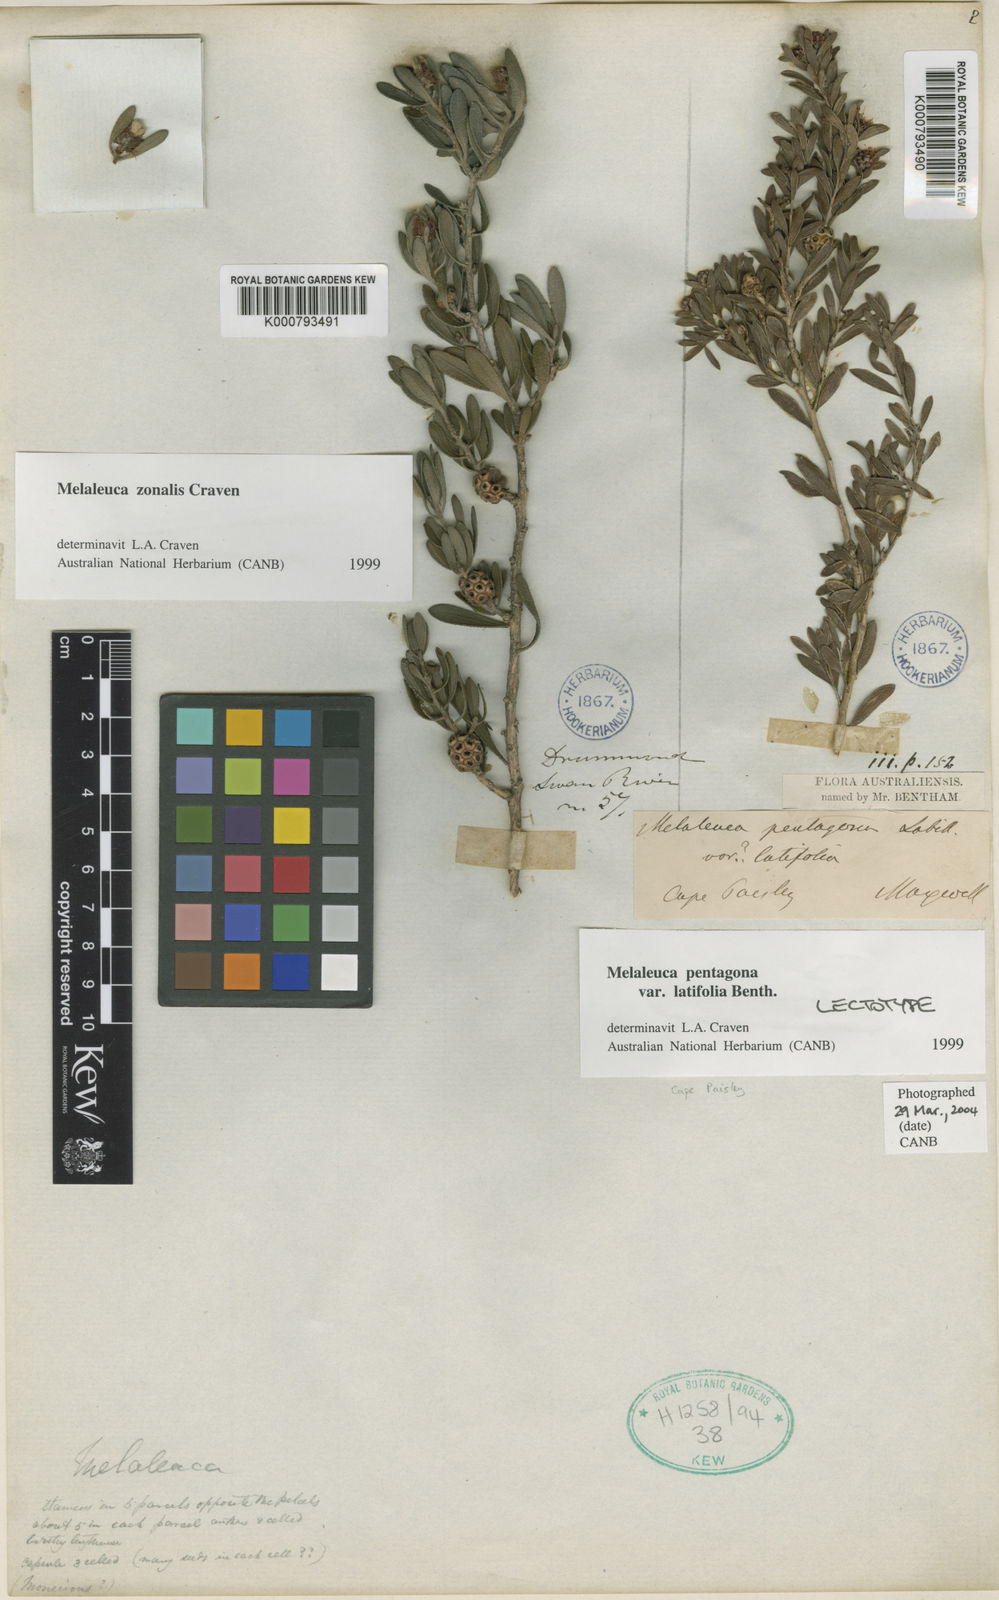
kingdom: Plantae
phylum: Tracheophyta
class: Magnoliopsida
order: Myrtales
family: Myrtaceae
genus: Melaleuca
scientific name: Melaleuca pentagona
